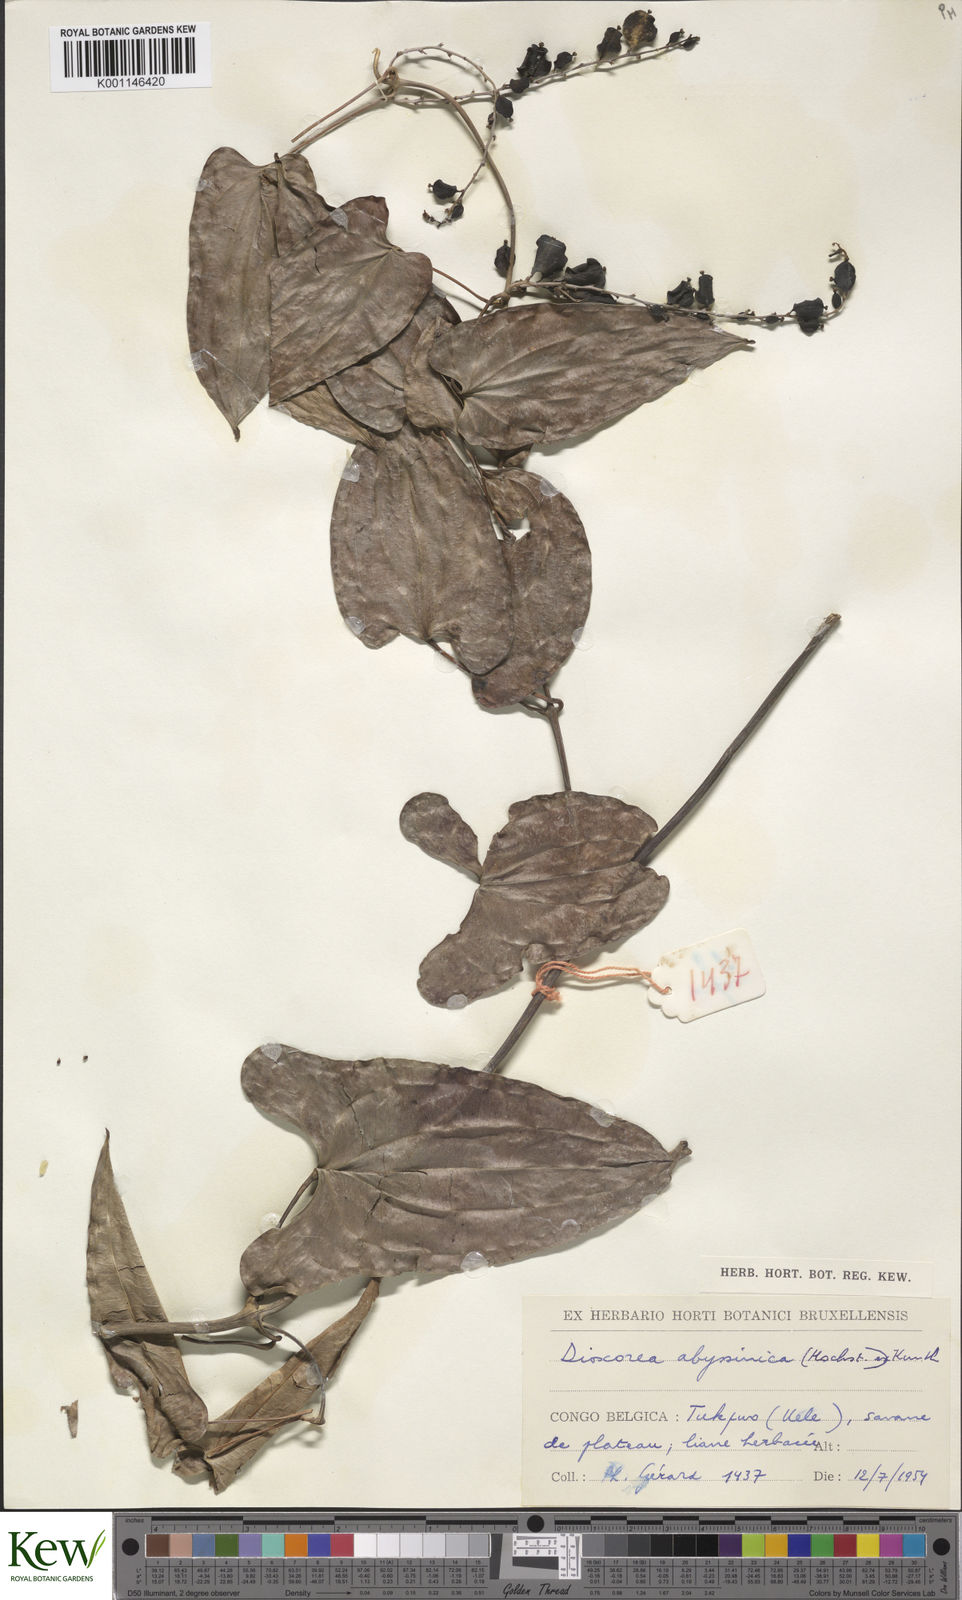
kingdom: Plantae
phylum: Tracheophyta
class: Liliopsida
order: Dioscoreales
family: Dioscoreaceae
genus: Dioscorea
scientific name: Dioscorea abyssinica
